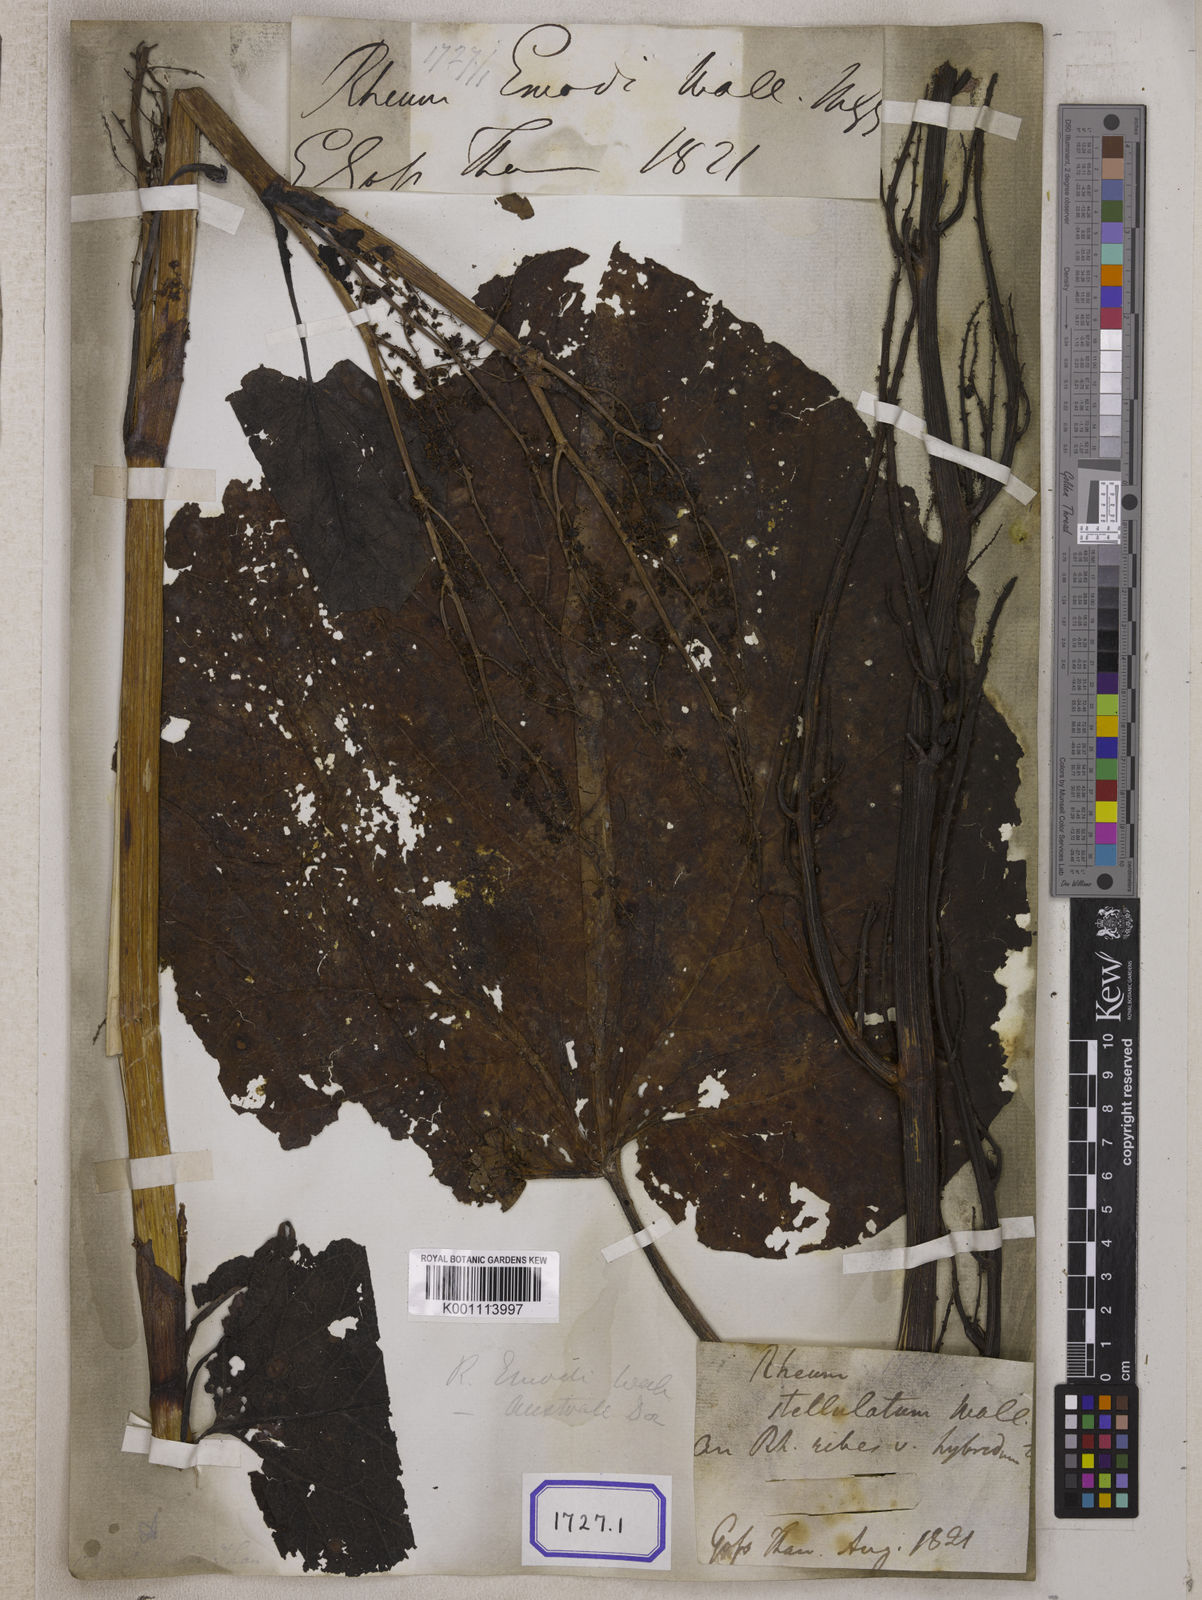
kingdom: Plantae
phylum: Tracheophyta
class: Magnoliopsida
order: Caryophyllales
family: Polygonaceae
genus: Rheum
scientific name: Rheum
